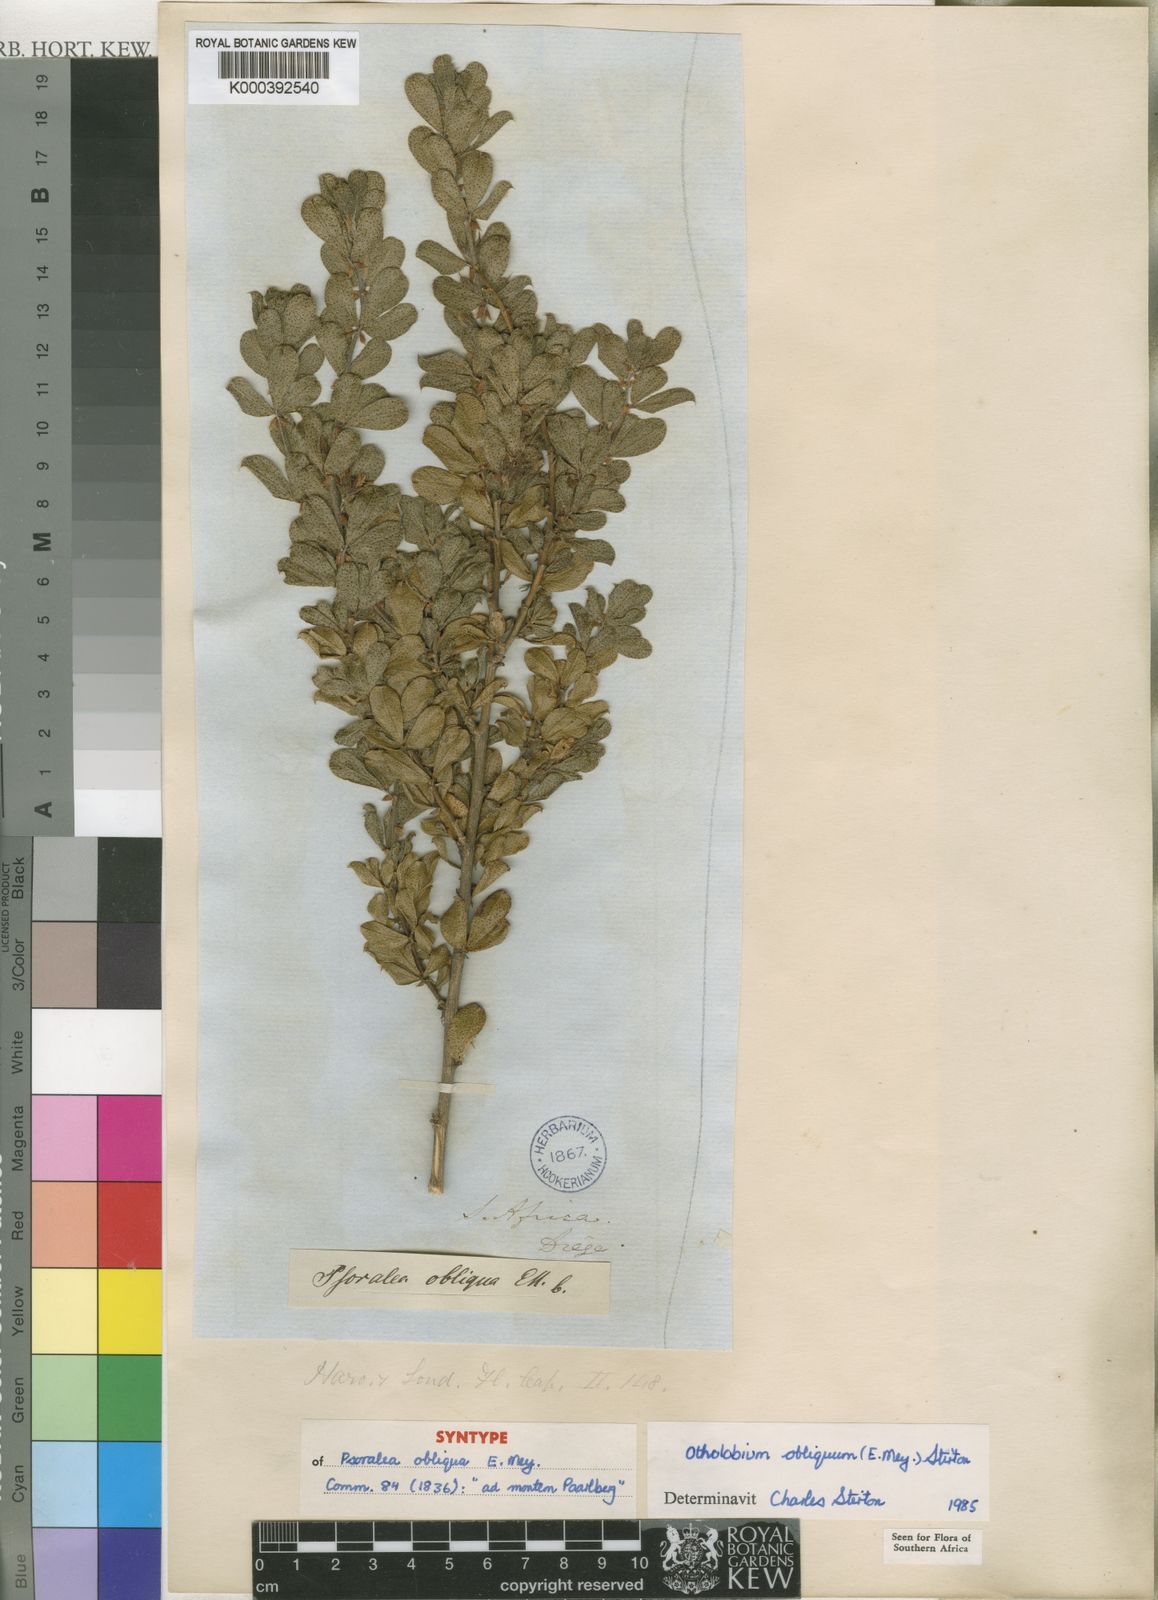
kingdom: Plantae
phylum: Tracheophyta
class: Magnoliopsida
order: Fabales
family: Fabaceae
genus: Psoralea
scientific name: Psoralea obliqua
